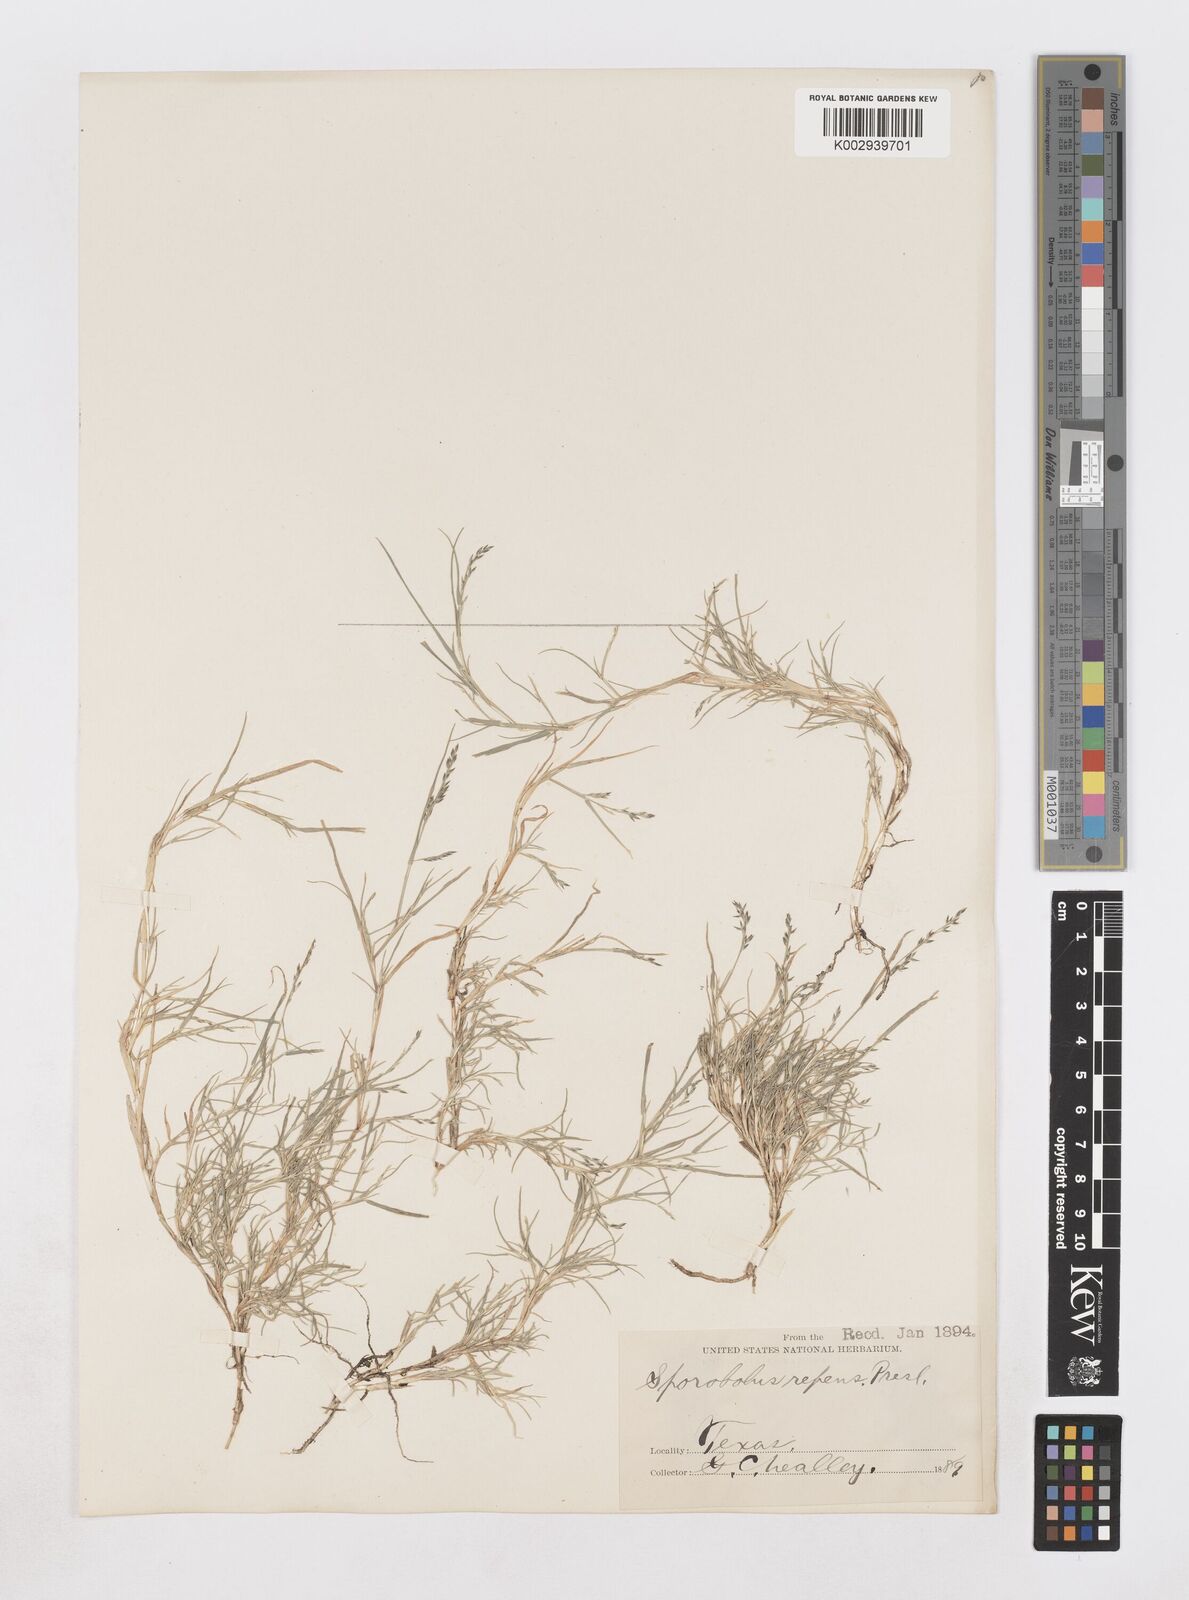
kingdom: Plantae
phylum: Tracheophyta
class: Liliopsida
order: Poales
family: Poaceae
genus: Muhlenbergia
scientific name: Muhlenbergia repens
